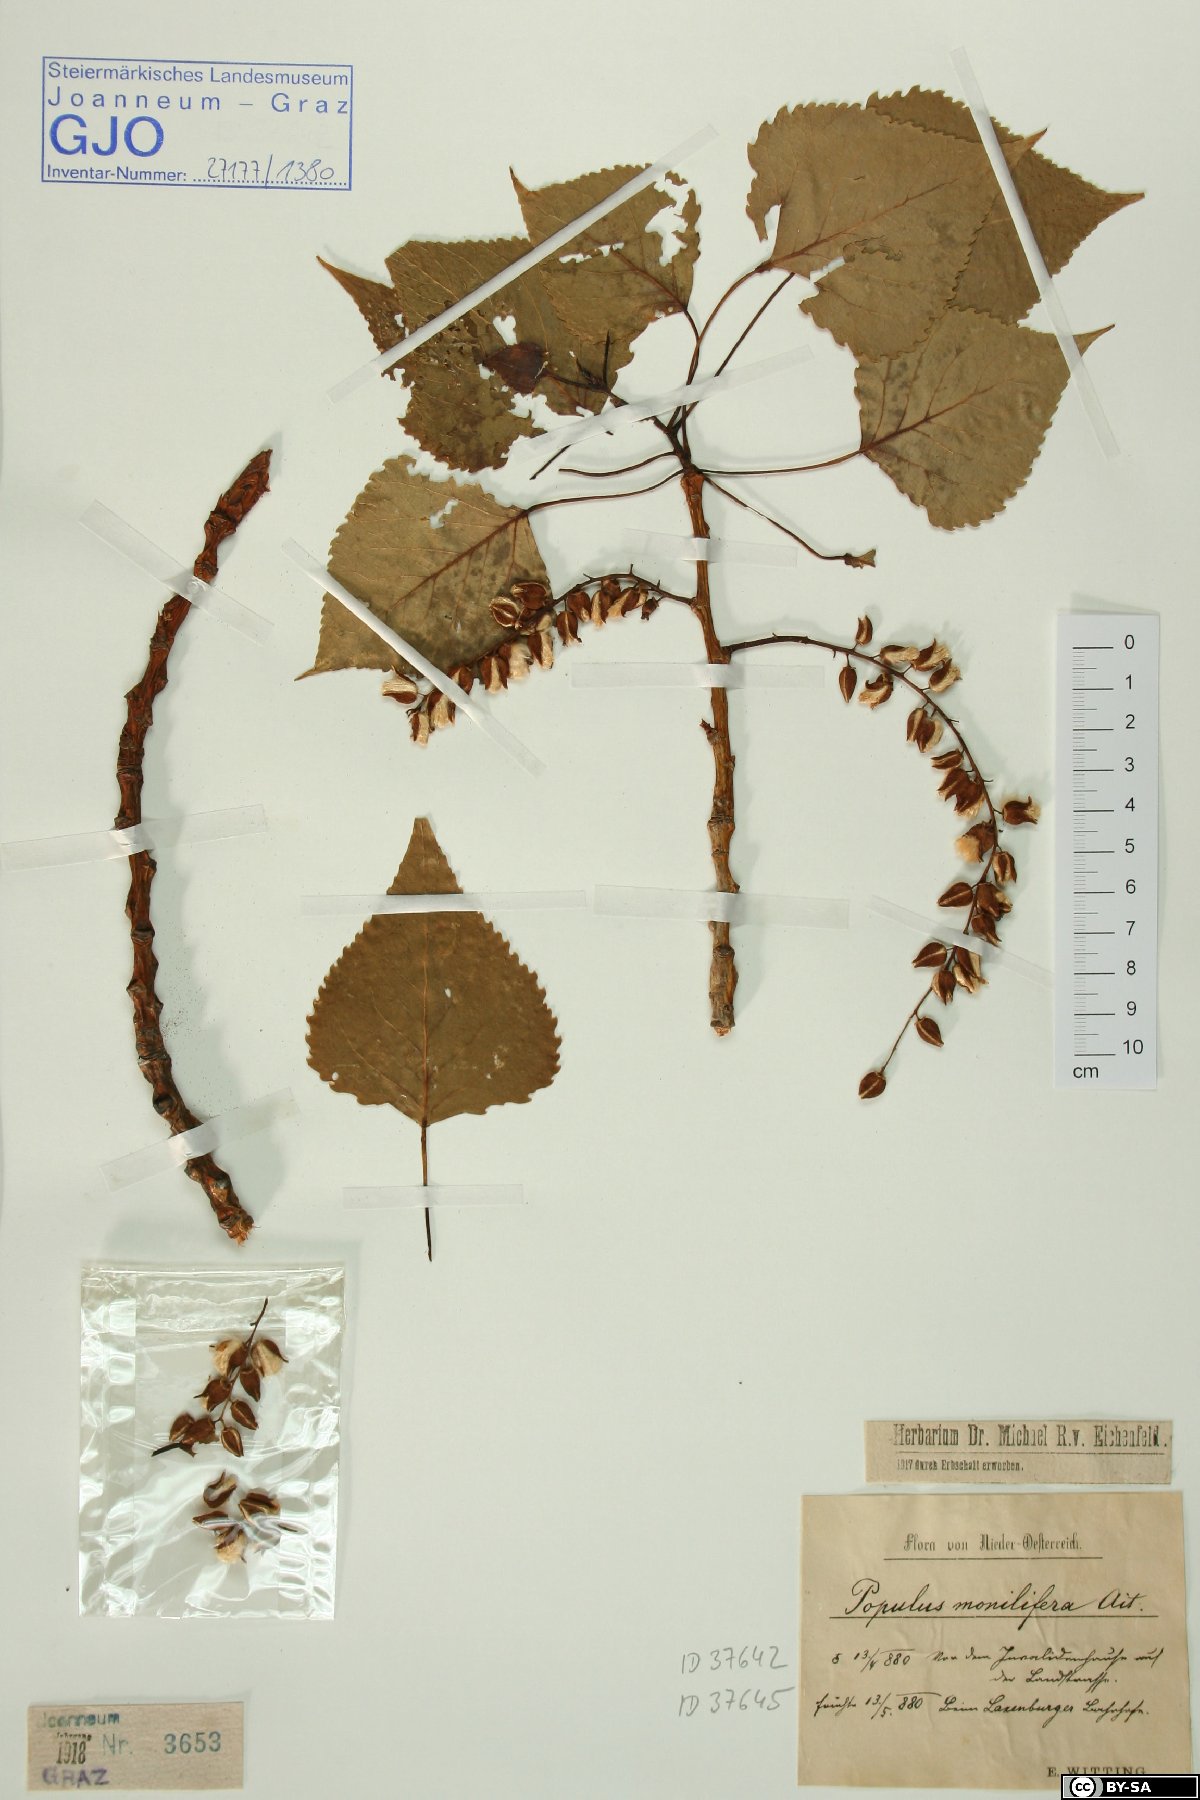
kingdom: Plantae
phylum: Tracheophyta
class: Magnoliopsida
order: Malpighiales
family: Salicaceae
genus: Populus
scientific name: Populus deltoides
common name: Eastern cottonwood
